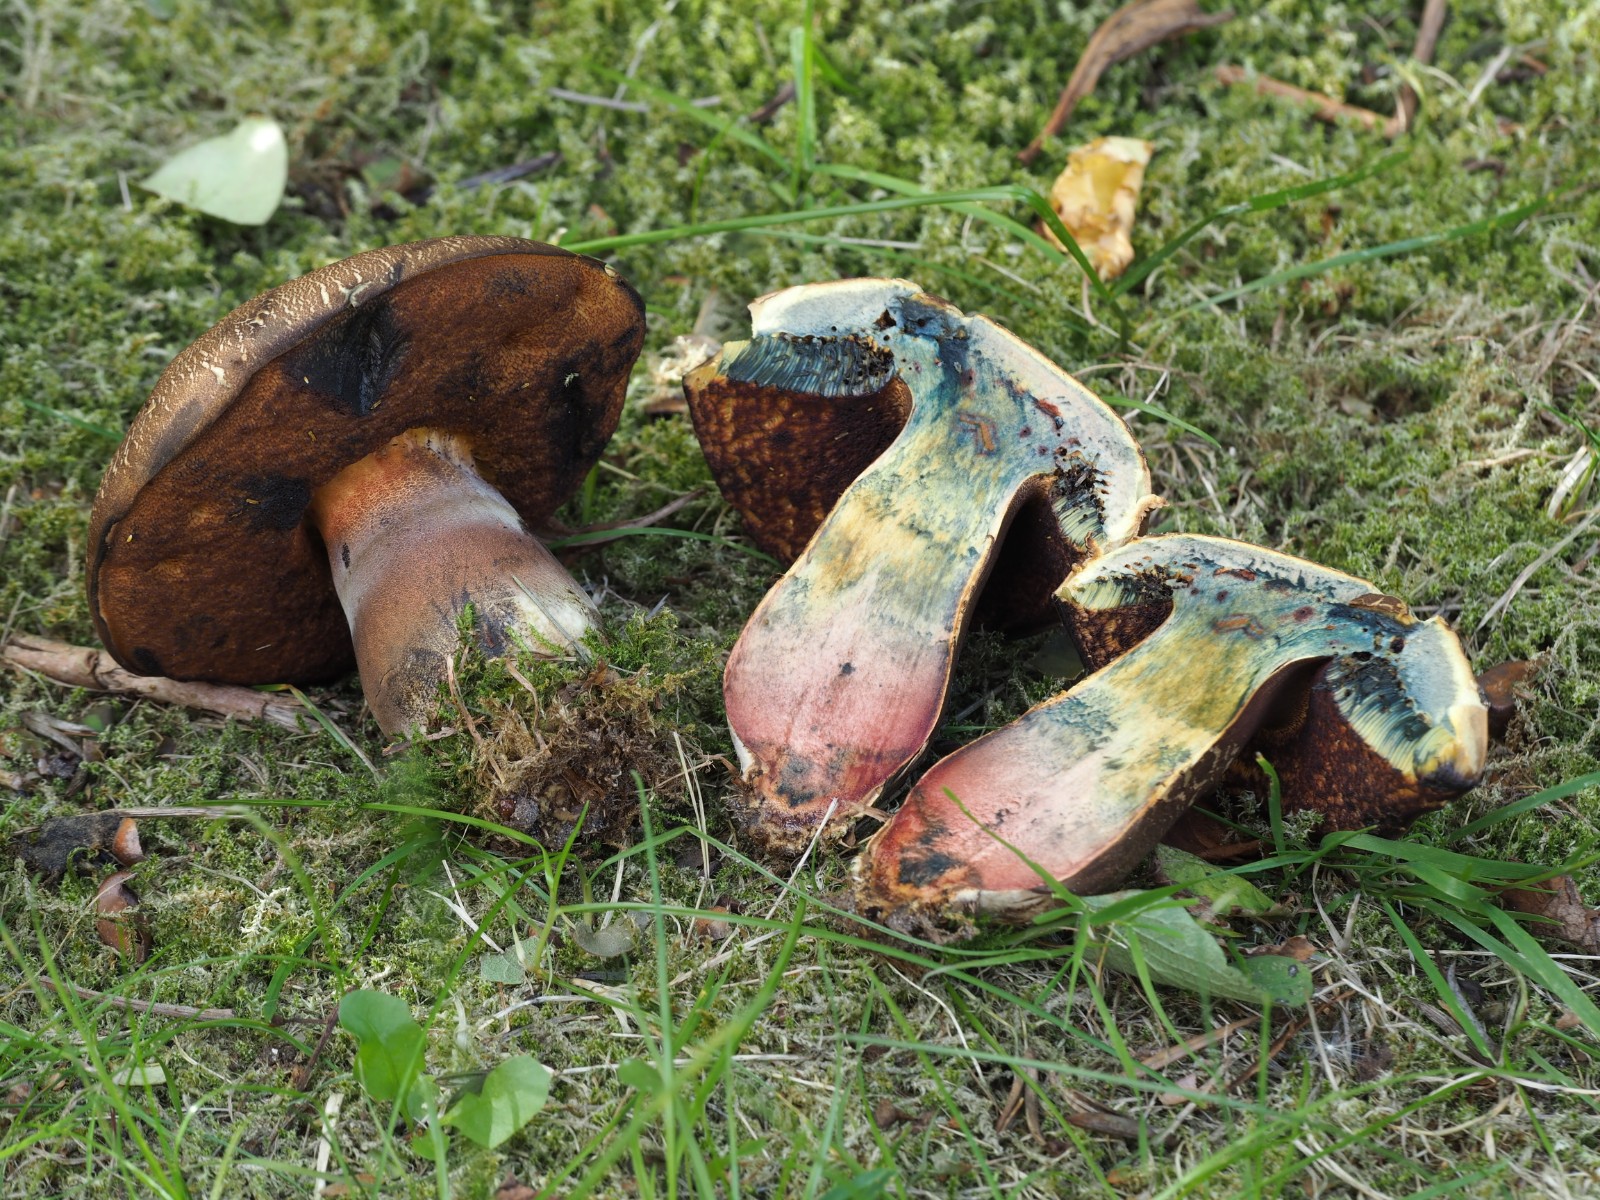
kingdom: Fungi
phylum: Basidiomycota
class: Agaricomycetes
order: Boletales
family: Boletaceae
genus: Neoboletus
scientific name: Neoboletus
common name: indigorørhat
